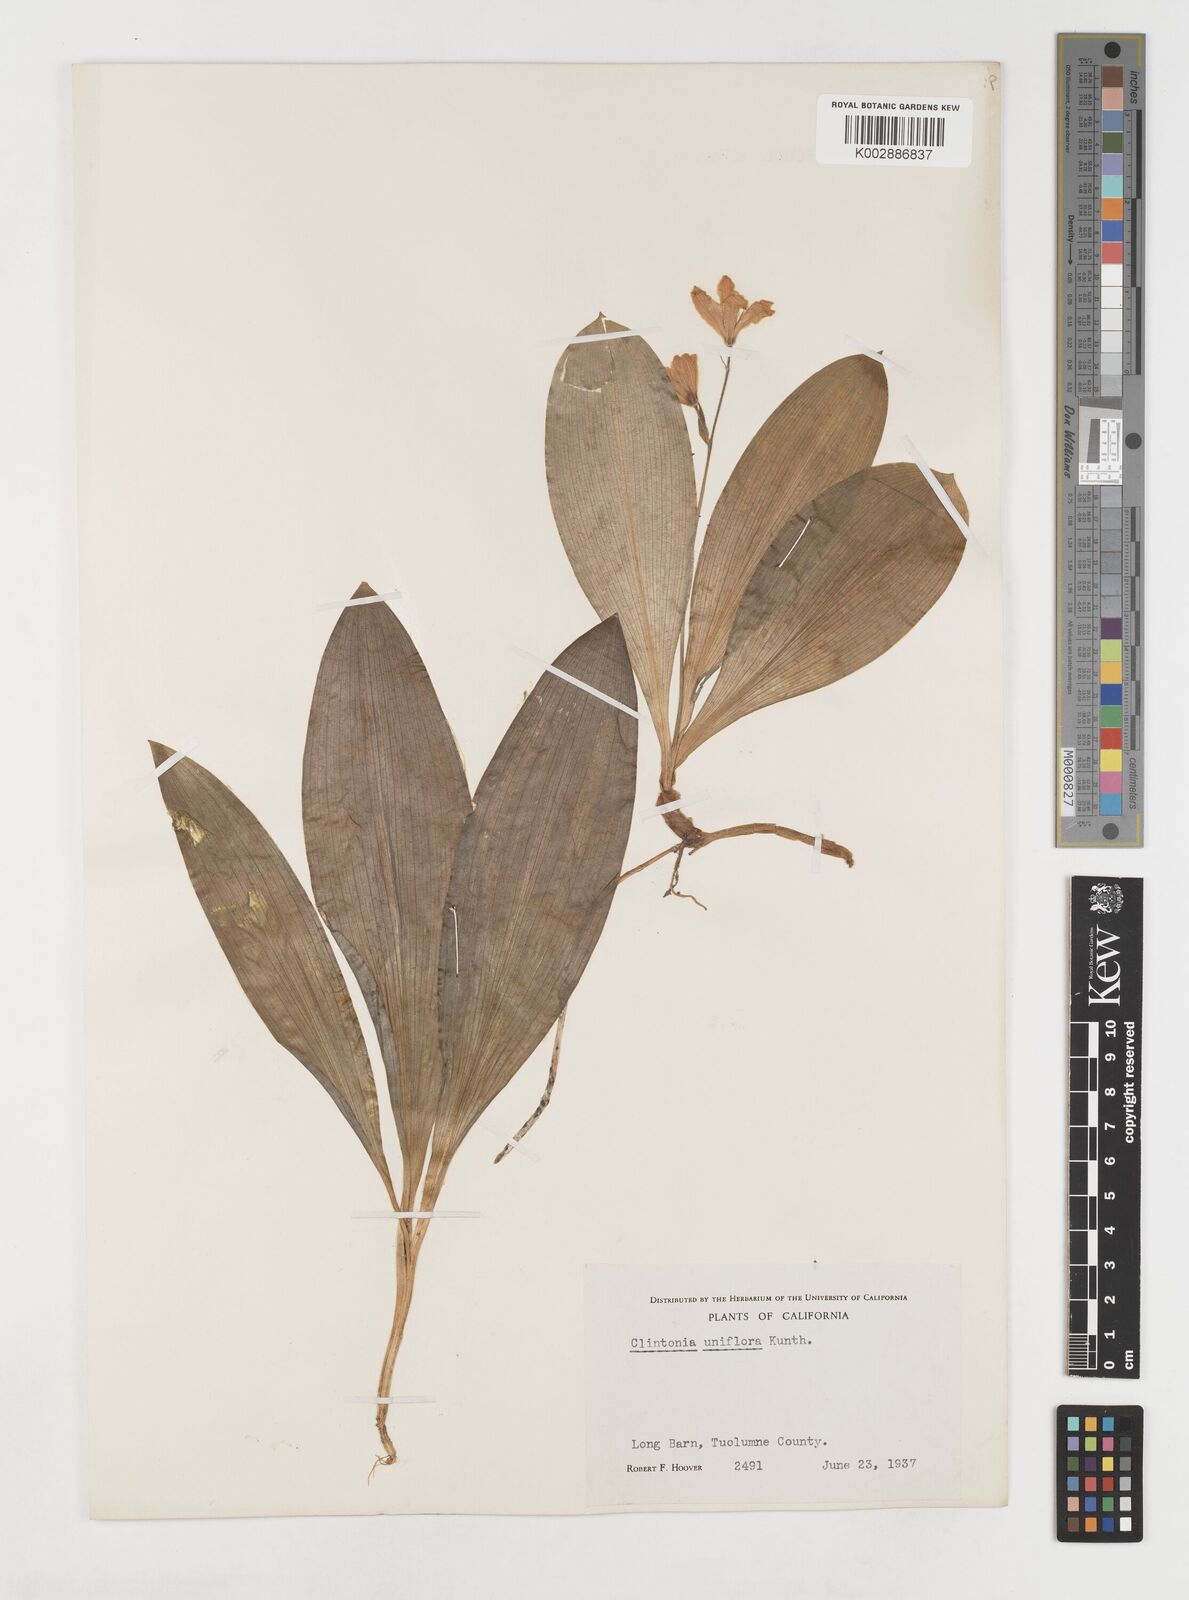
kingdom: Plantae
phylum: Tracheophyta
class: Liliopsida
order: Liliales
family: Liliaceae
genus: Clintonia
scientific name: Clintonia uniflora
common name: Queen's cup
